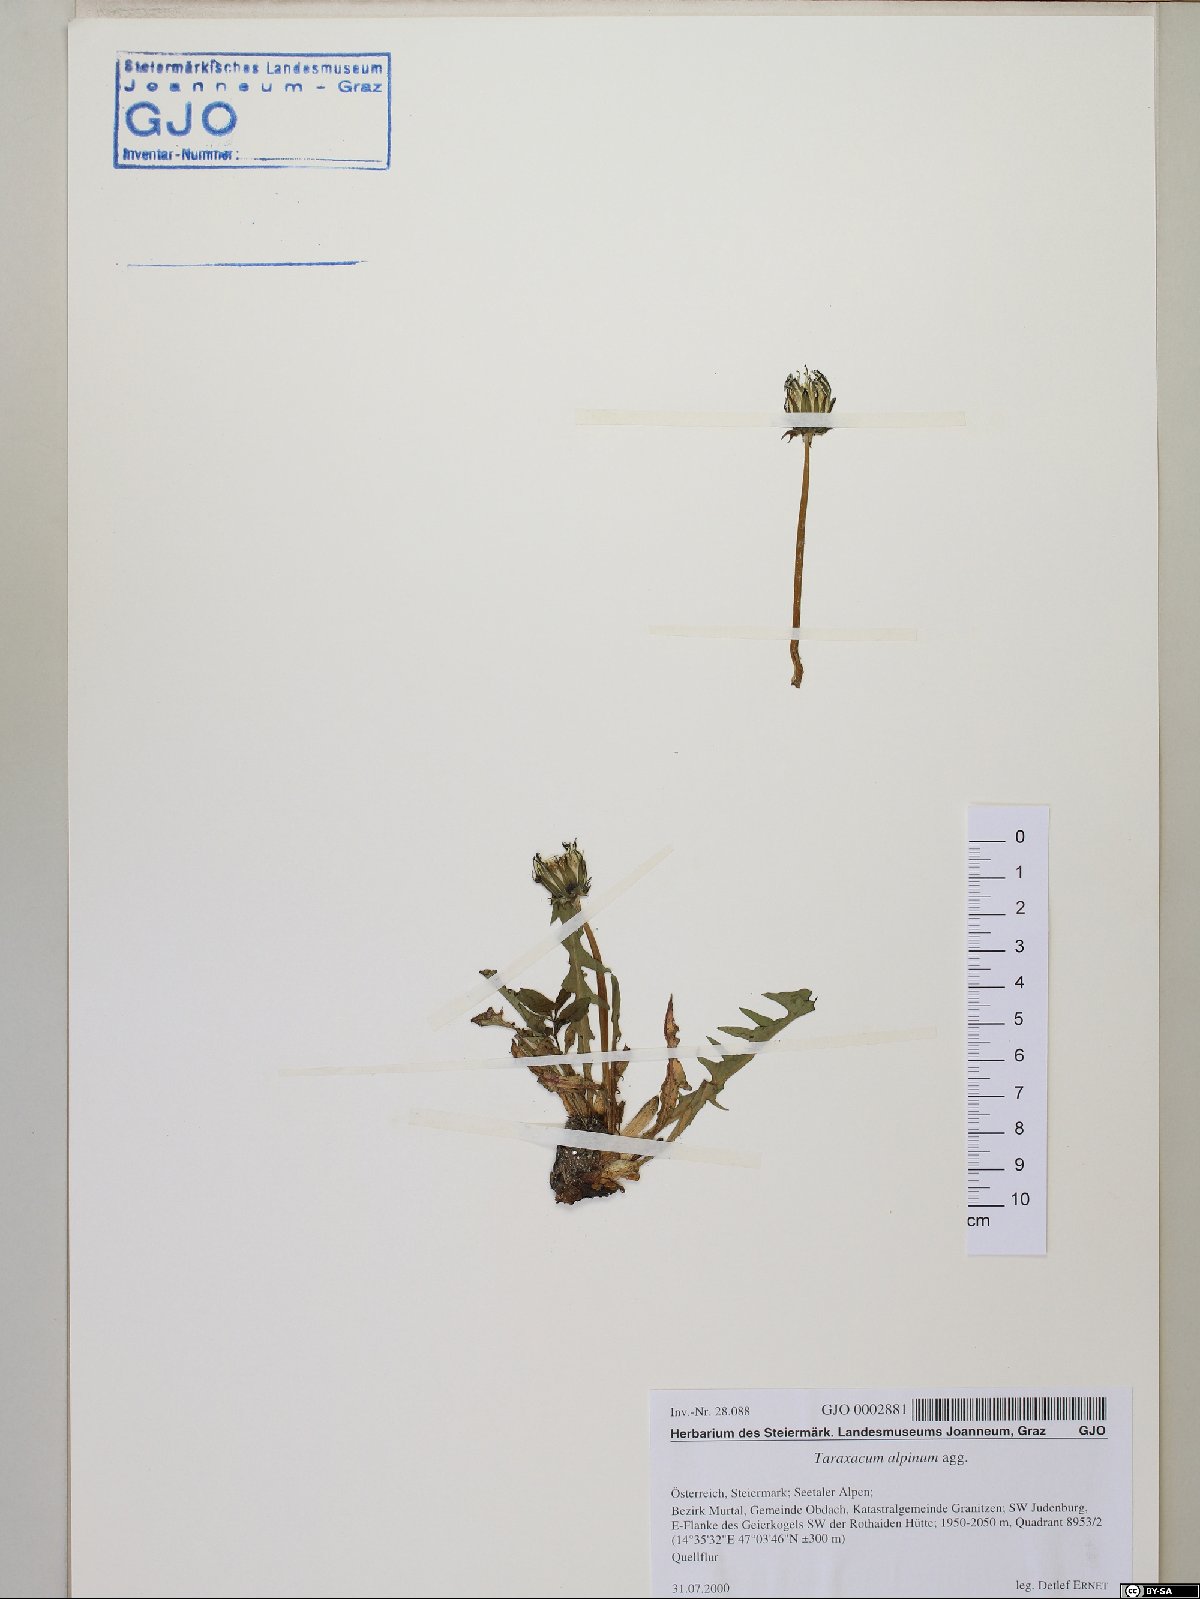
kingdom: Plantae
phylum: Tracheophyta
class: Magnoliopsida
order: Asterales
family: Asteraceae
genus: Taraxacum
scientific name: Taraxacum alpinum
